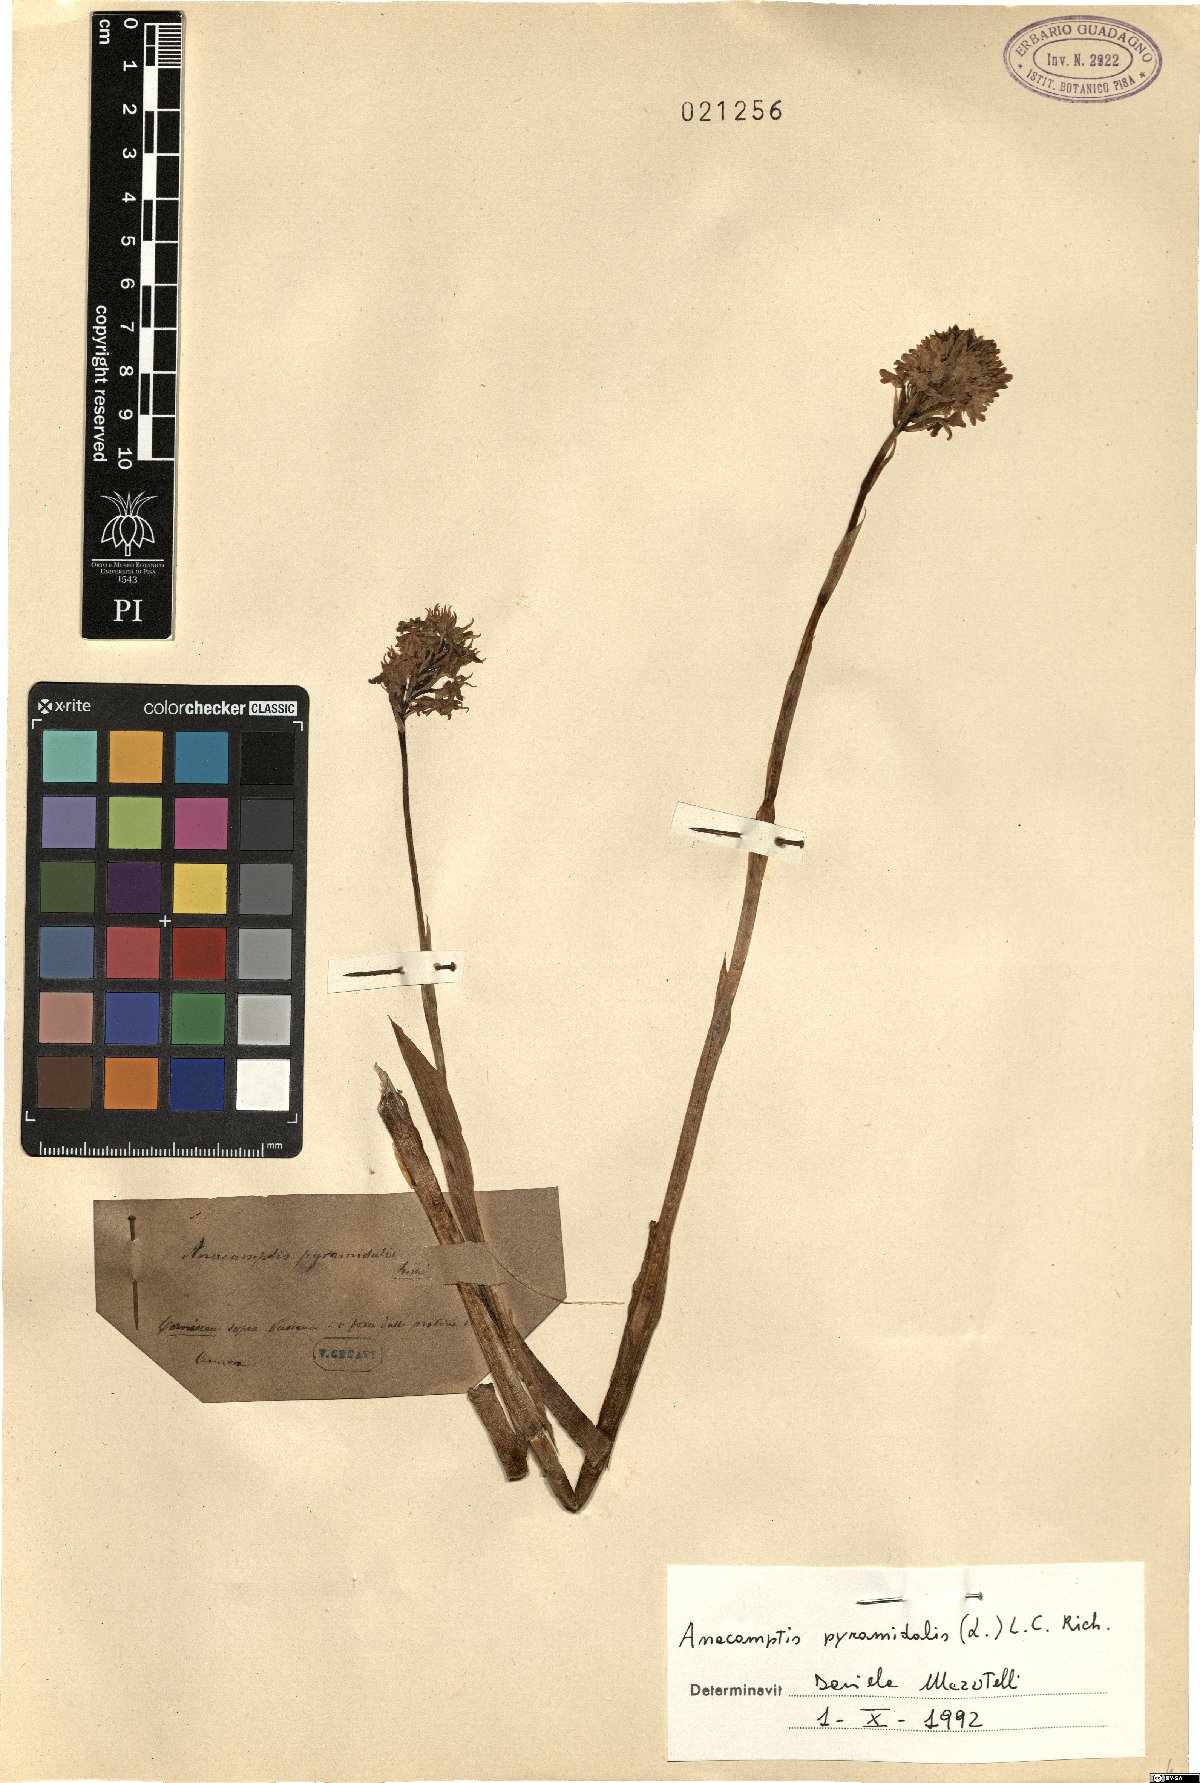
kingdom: Plantae
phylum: Tracheophyta
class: Liliopsida
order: Asparagales
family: Orchidaceae
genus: Anacamptis
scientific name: Anacamptis pyramidalis
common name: Pyramidal orchid
